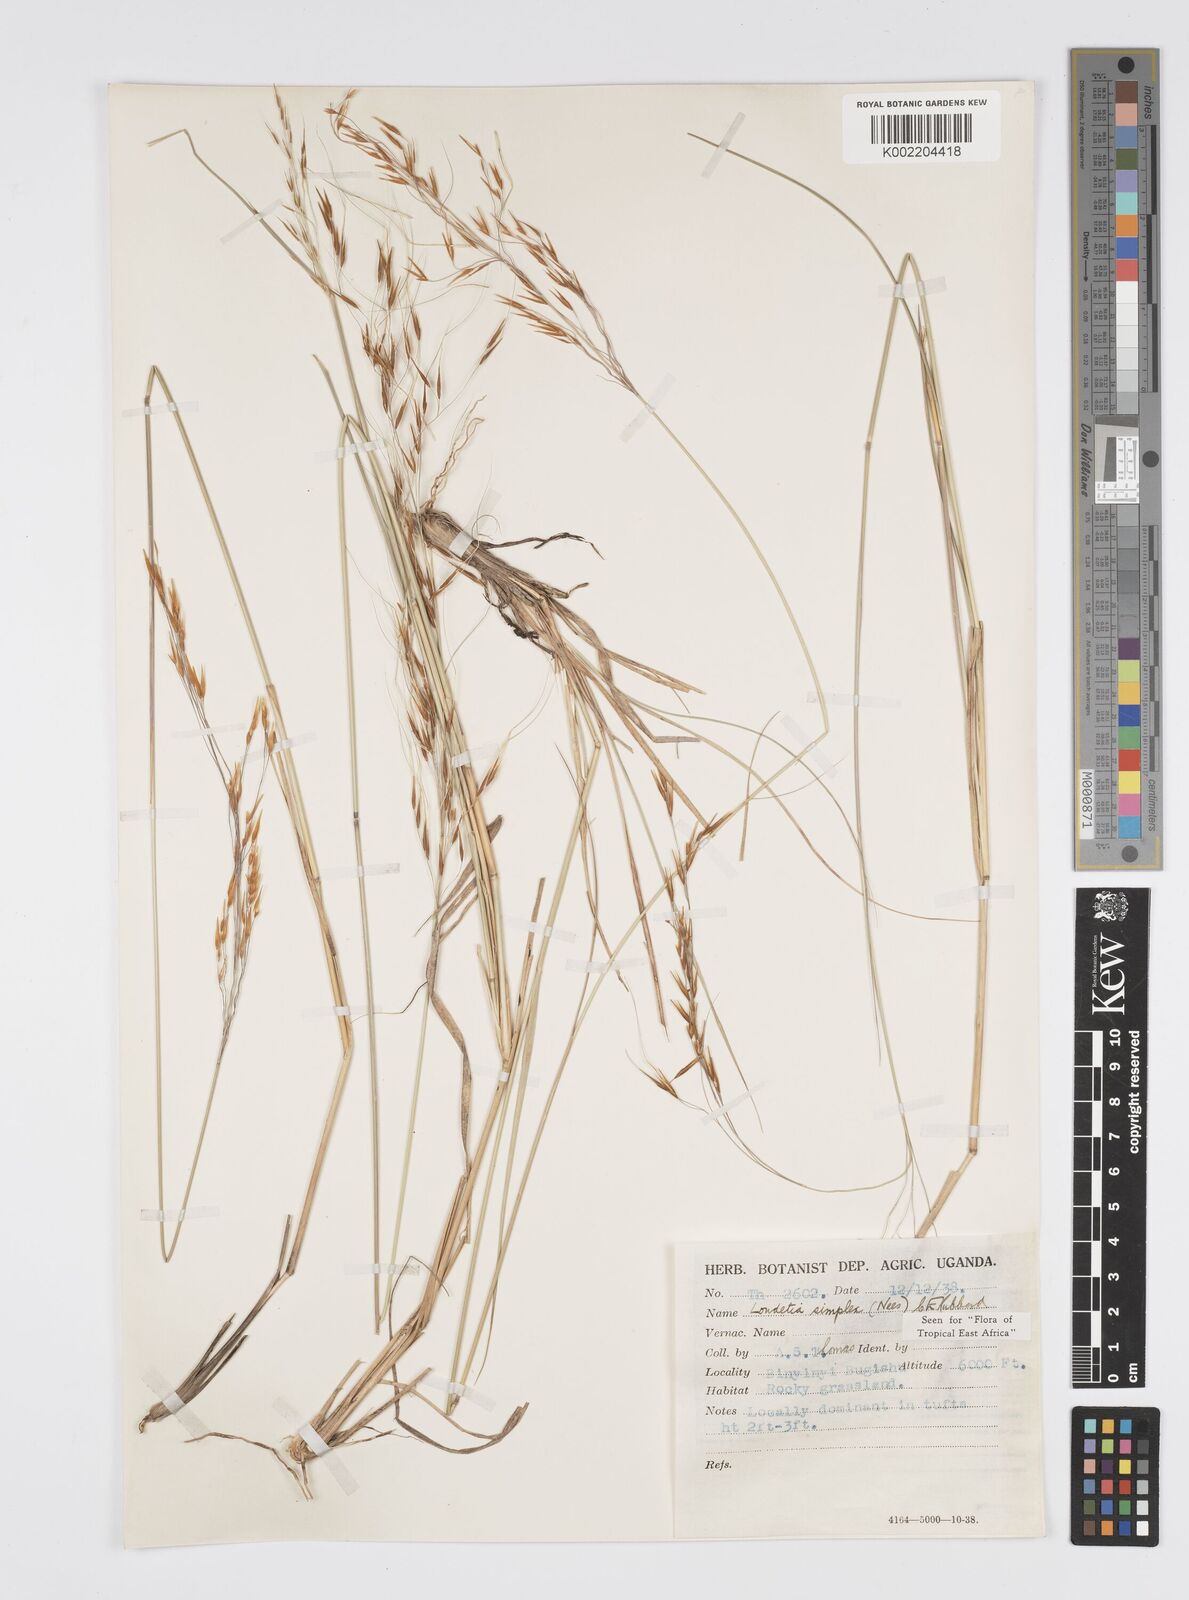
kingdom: Plantae
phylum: Tracheophyta
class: Liliopsida
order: Poales
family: Poaceae
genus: Loudetia
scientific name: Loudetia simplex
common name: Common russet grass
